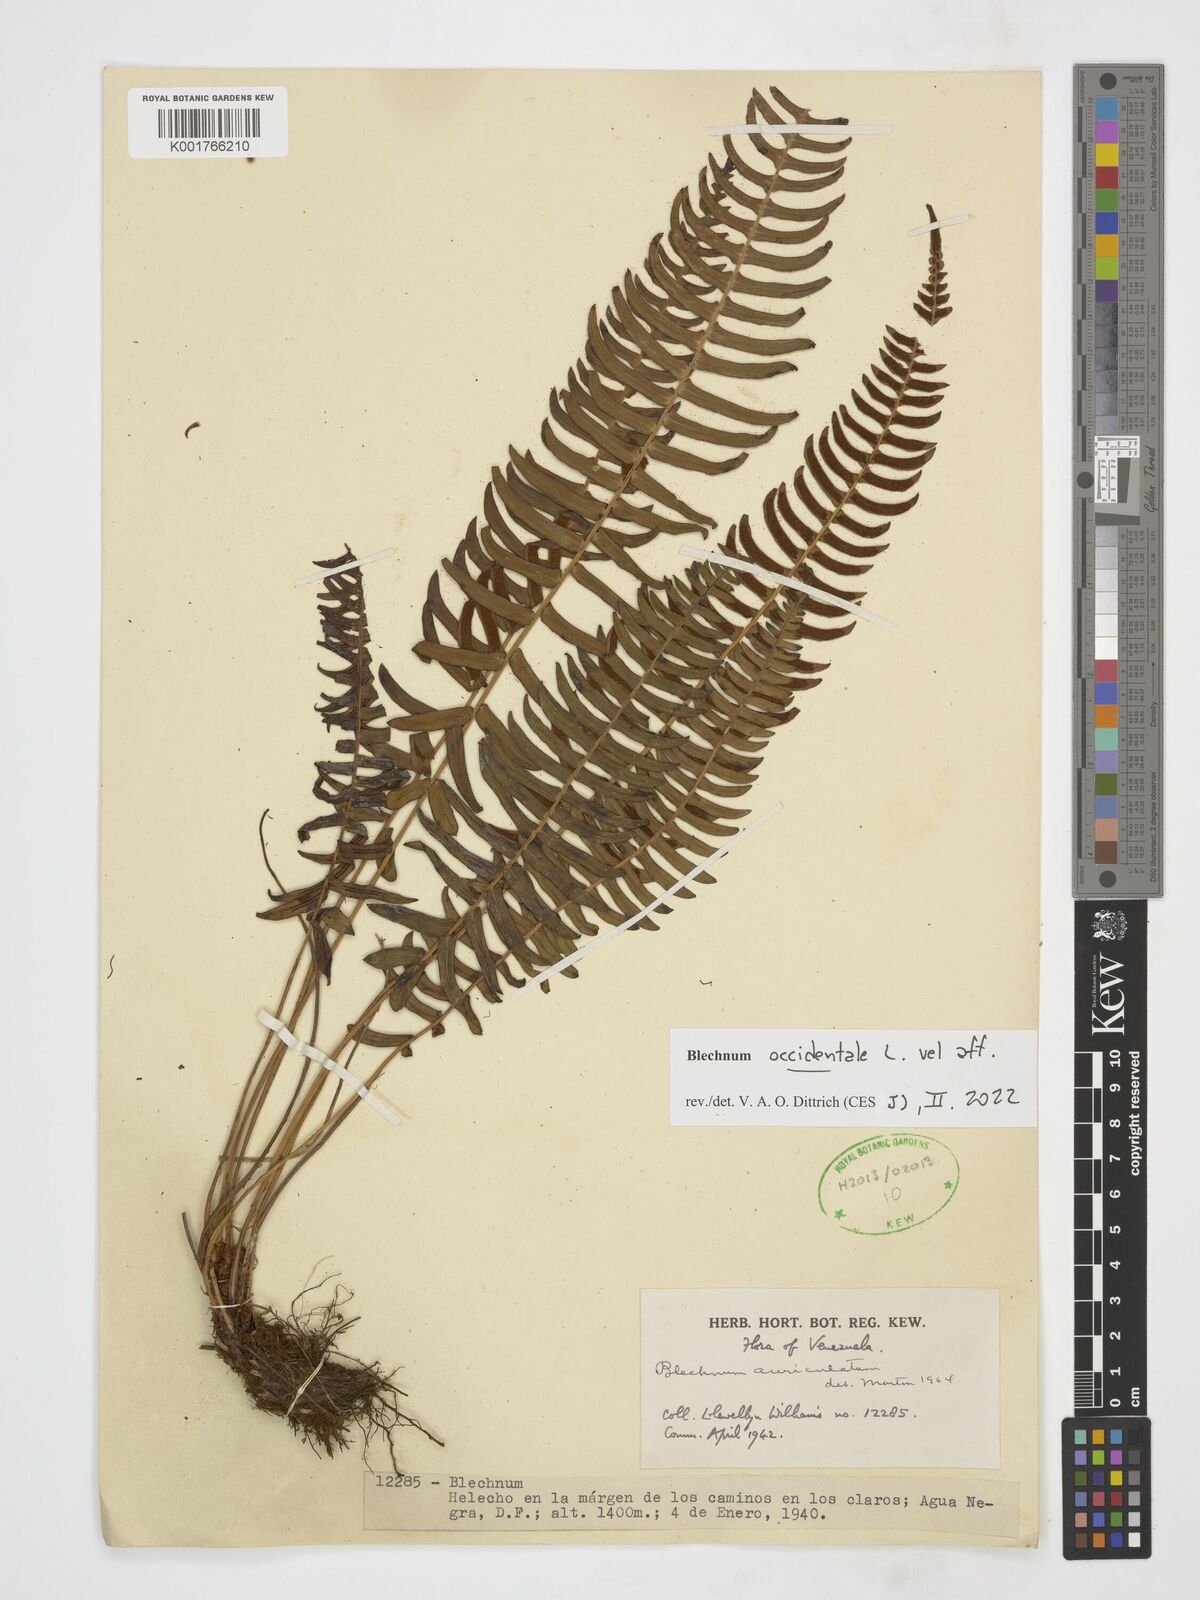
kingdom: Plantae
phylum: Tracheophyta
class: Polypodiopsida
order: Polypodiales
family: Blechnaceae
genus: Blechnum
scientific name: Blechnum occidentale
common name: Hammock fern
